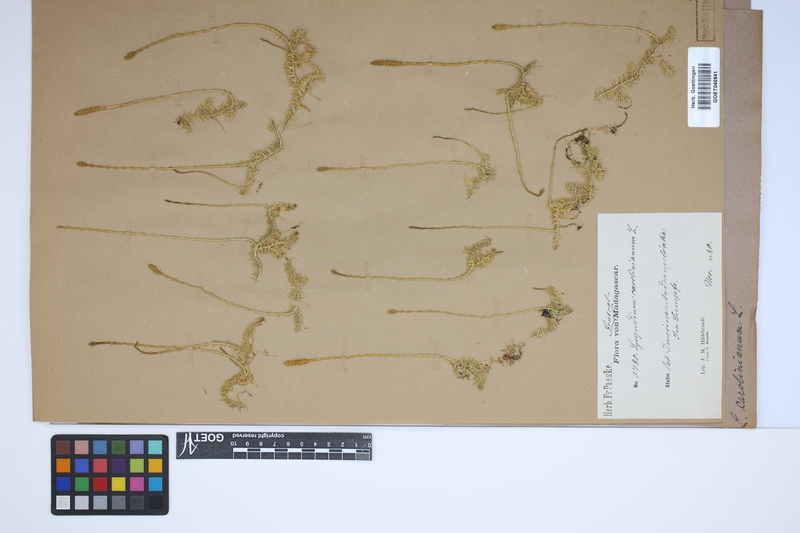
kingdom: Plantae
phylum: Tracheophyta
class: Lycopodiopsida
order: Lycopodiales
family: Lycopodiaceae
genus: Brownseya
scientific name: Brownseya serpentina
